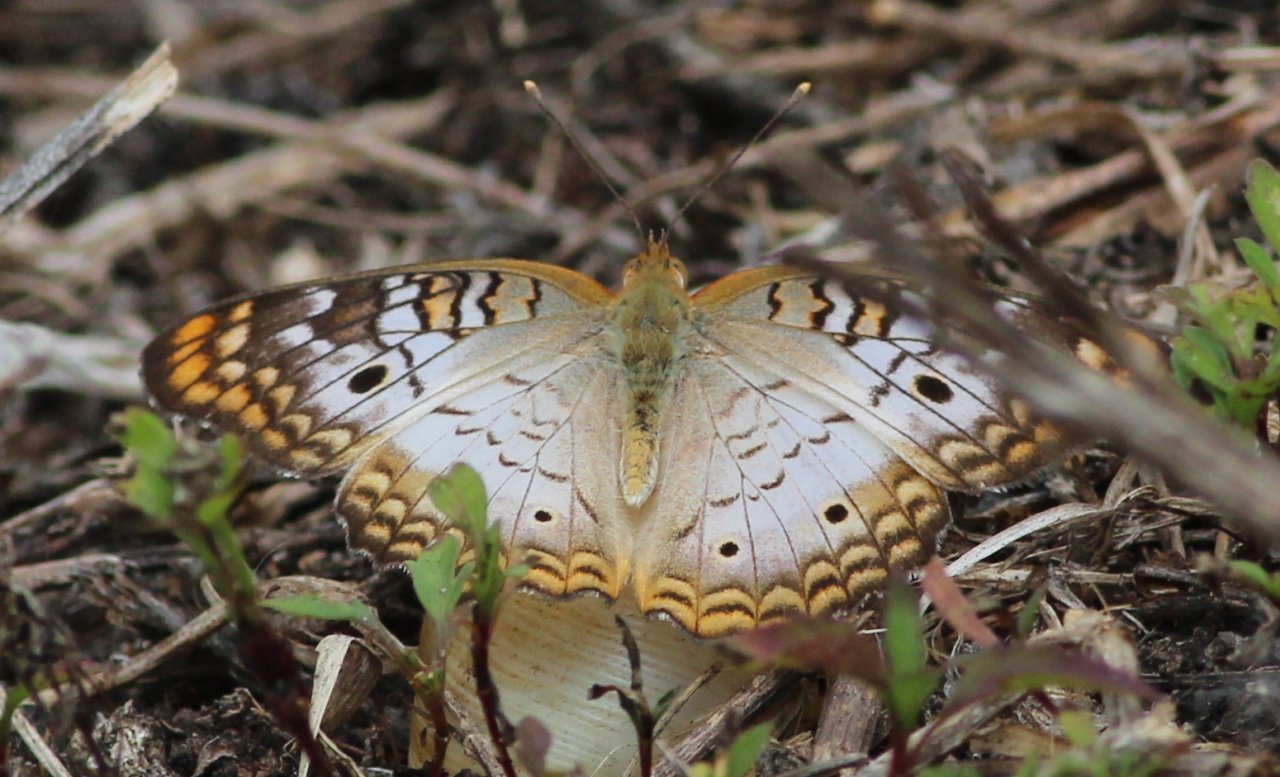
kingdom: Animalia
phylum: Arthropoda
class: Insecta
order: Lepidoptera
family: Nymphalidae
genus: Anartia
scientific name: Anartia jatrophae
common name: White Peacock
